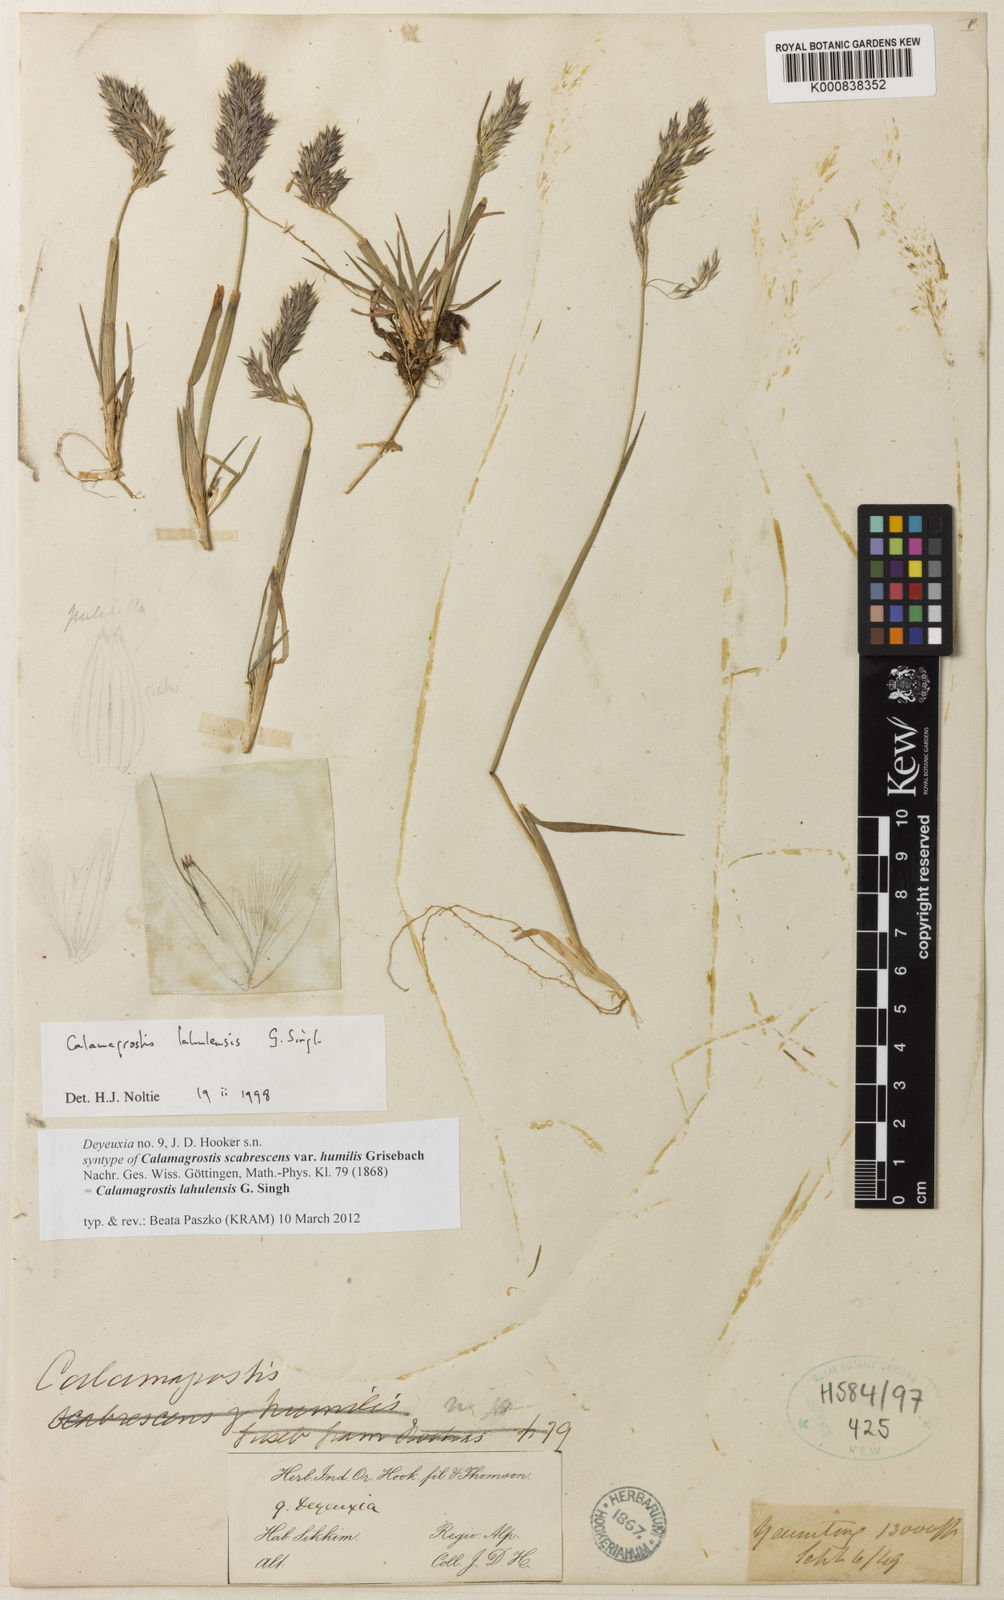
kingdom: Plantae
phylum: Tracheophyta
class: Liliopsida
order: Poales
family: Poaceae
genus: Calamagrostis
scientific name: Calamagrostis filiformis
